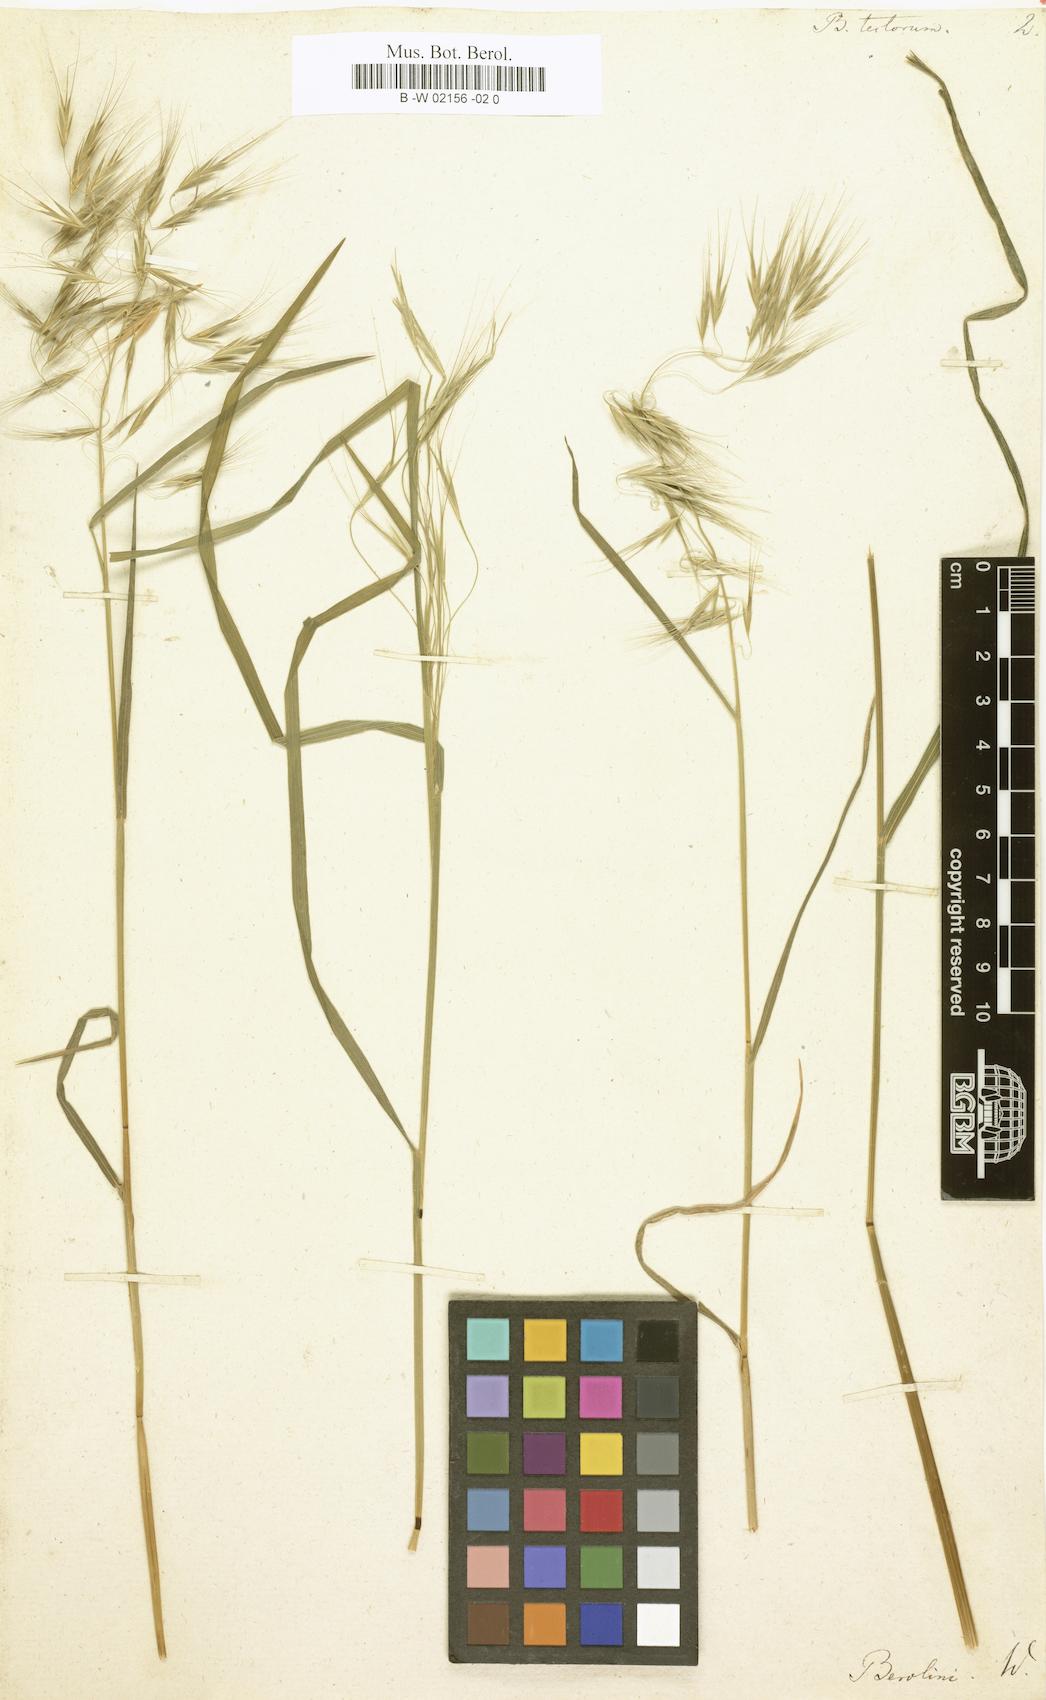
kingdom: Plantae
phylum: Tracheophyta
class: Liliopsida
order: Poales
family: Poaceae
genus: Bromus
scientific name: Bromus tectorum
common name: Cheatgrass
